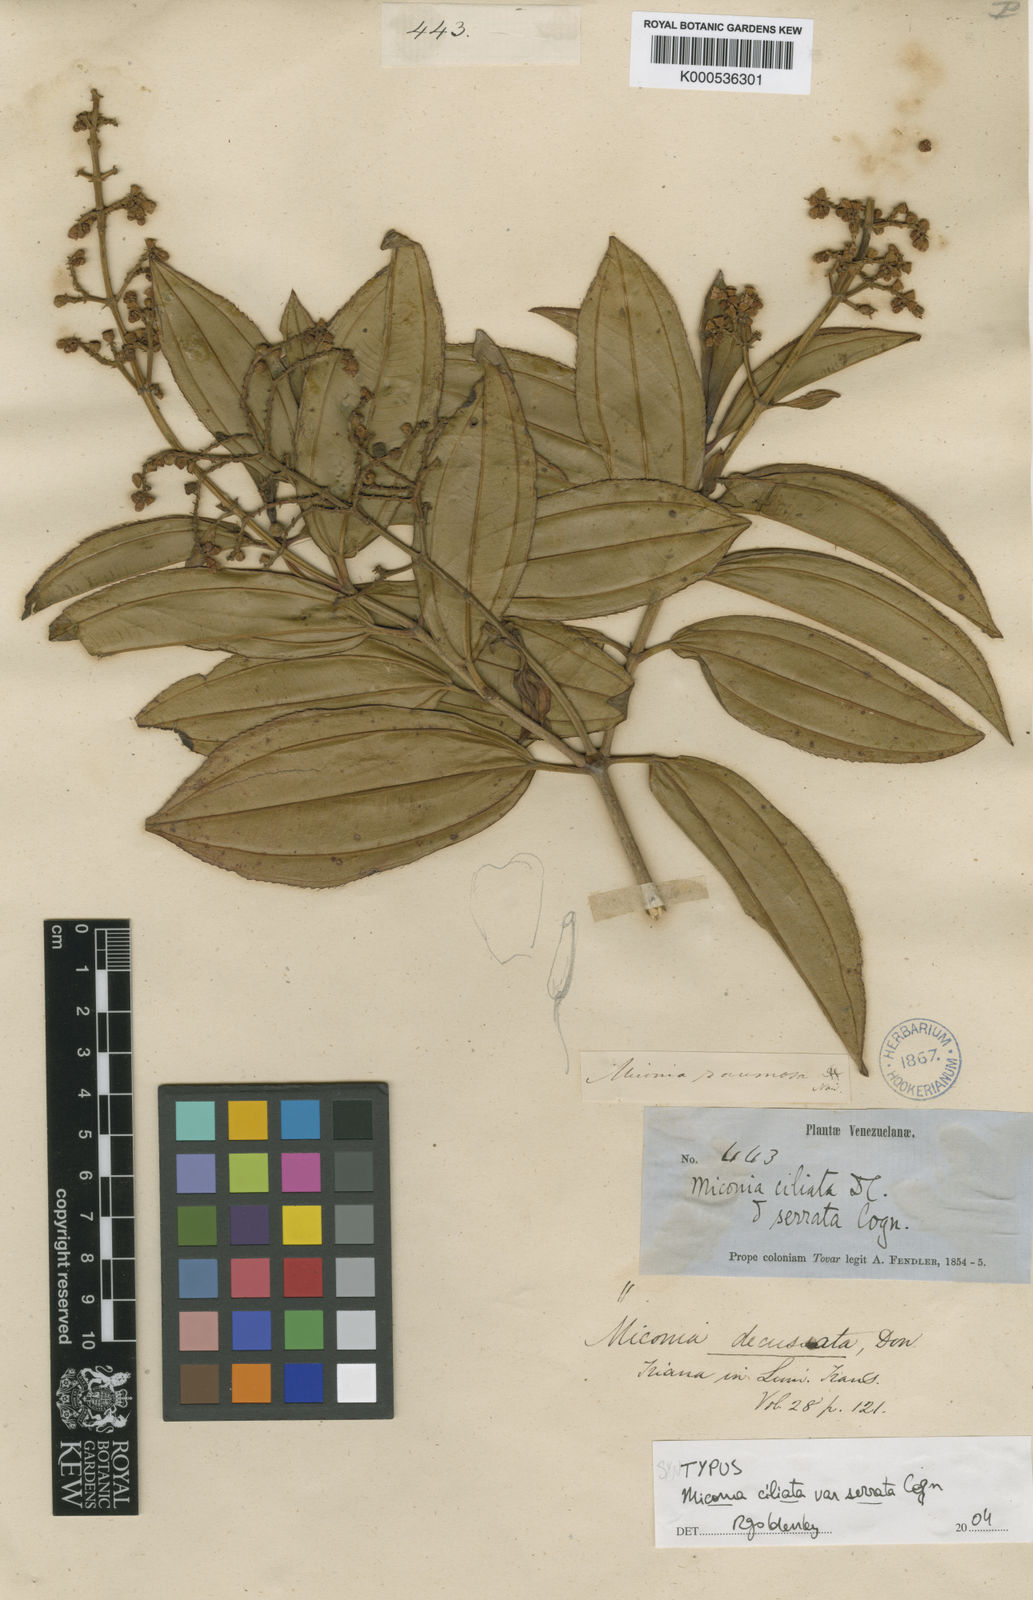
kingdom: Plantae
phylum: Tracheophyta
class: Magnoliopsida
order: Myrtales
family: Melastomataceae
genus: Miconia
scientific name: Miconia ciliata
